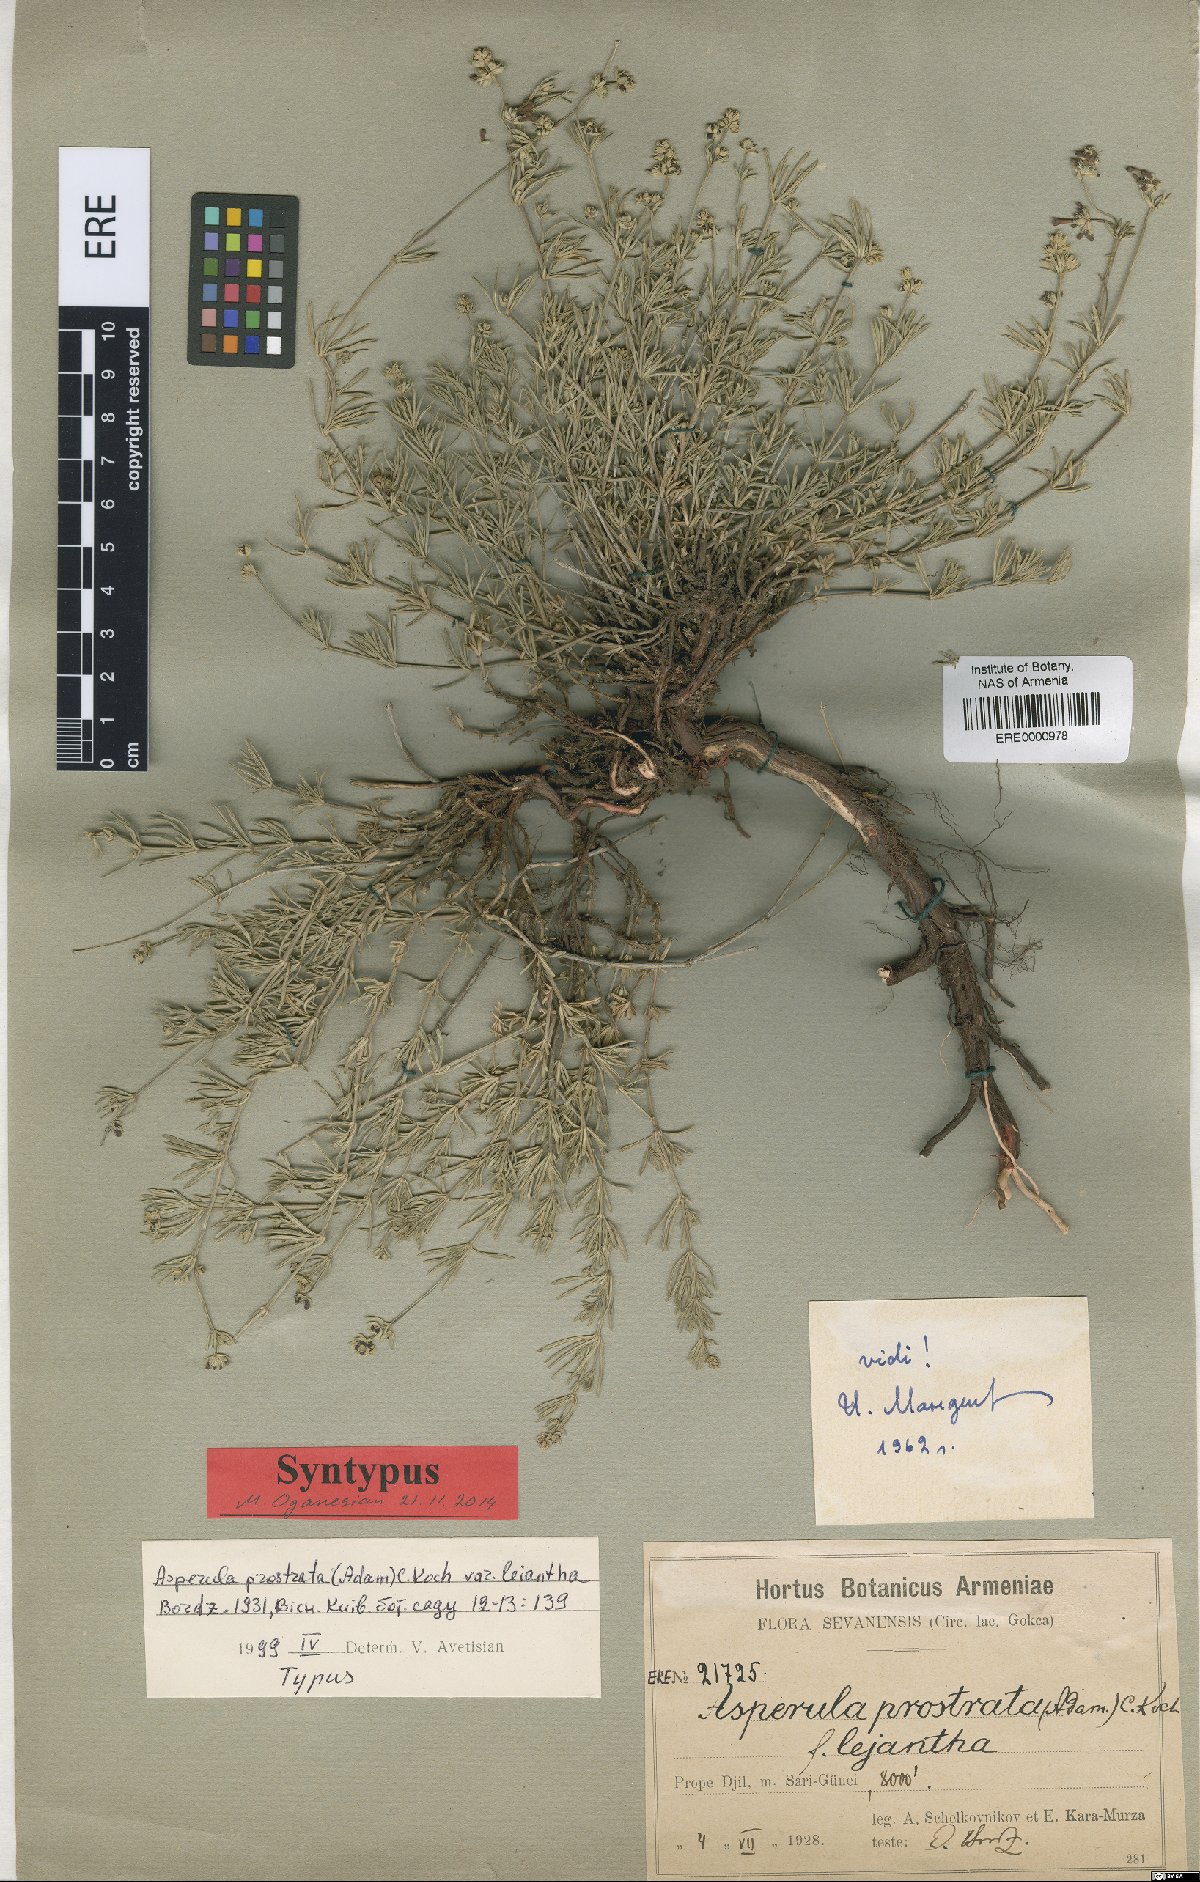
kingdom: Plantae
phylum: Tracheophyta
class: Magnoliopsida
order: Gentianales
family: Rubiaceae
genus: Asperula
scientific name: Asperula prostrata
